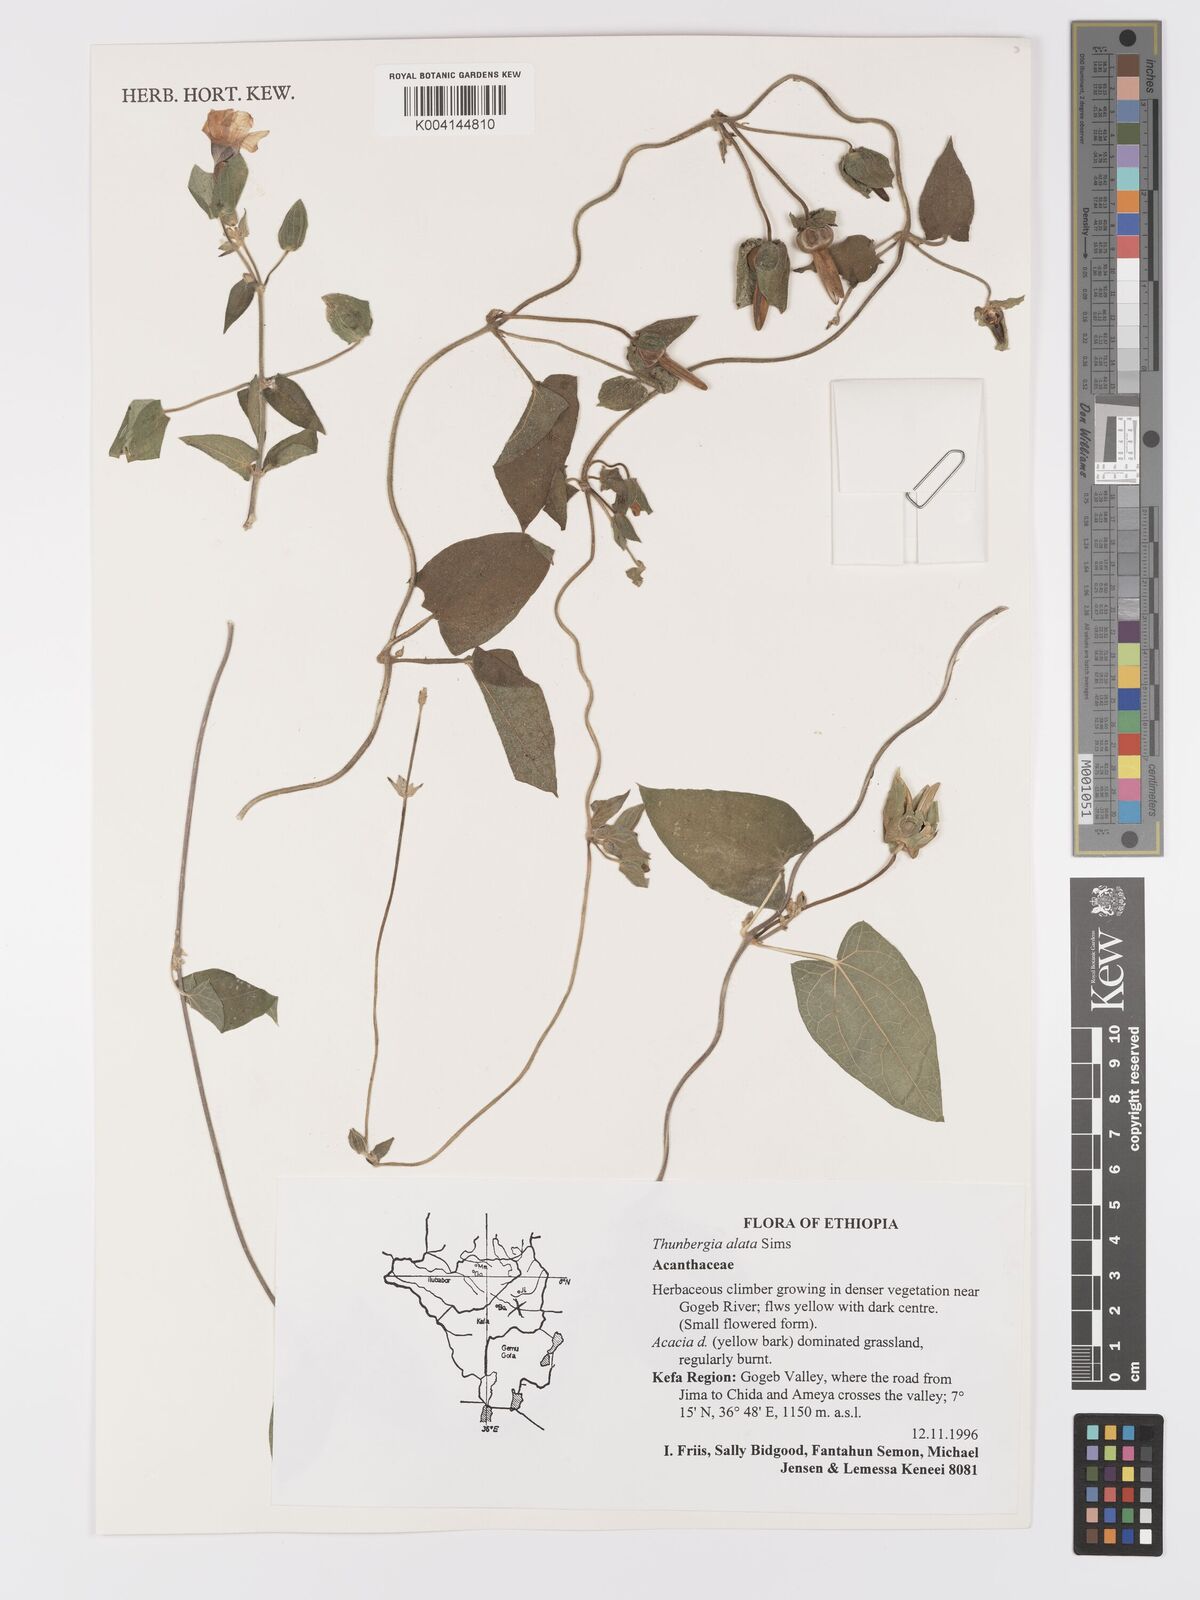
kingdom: Plantae
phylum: Tracheophyta
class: Magnoliopsida
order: Lamiales
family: Acanthaceae
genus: Thunbergia
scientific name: Thunbergia alata
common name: Blackeyed susan vine
